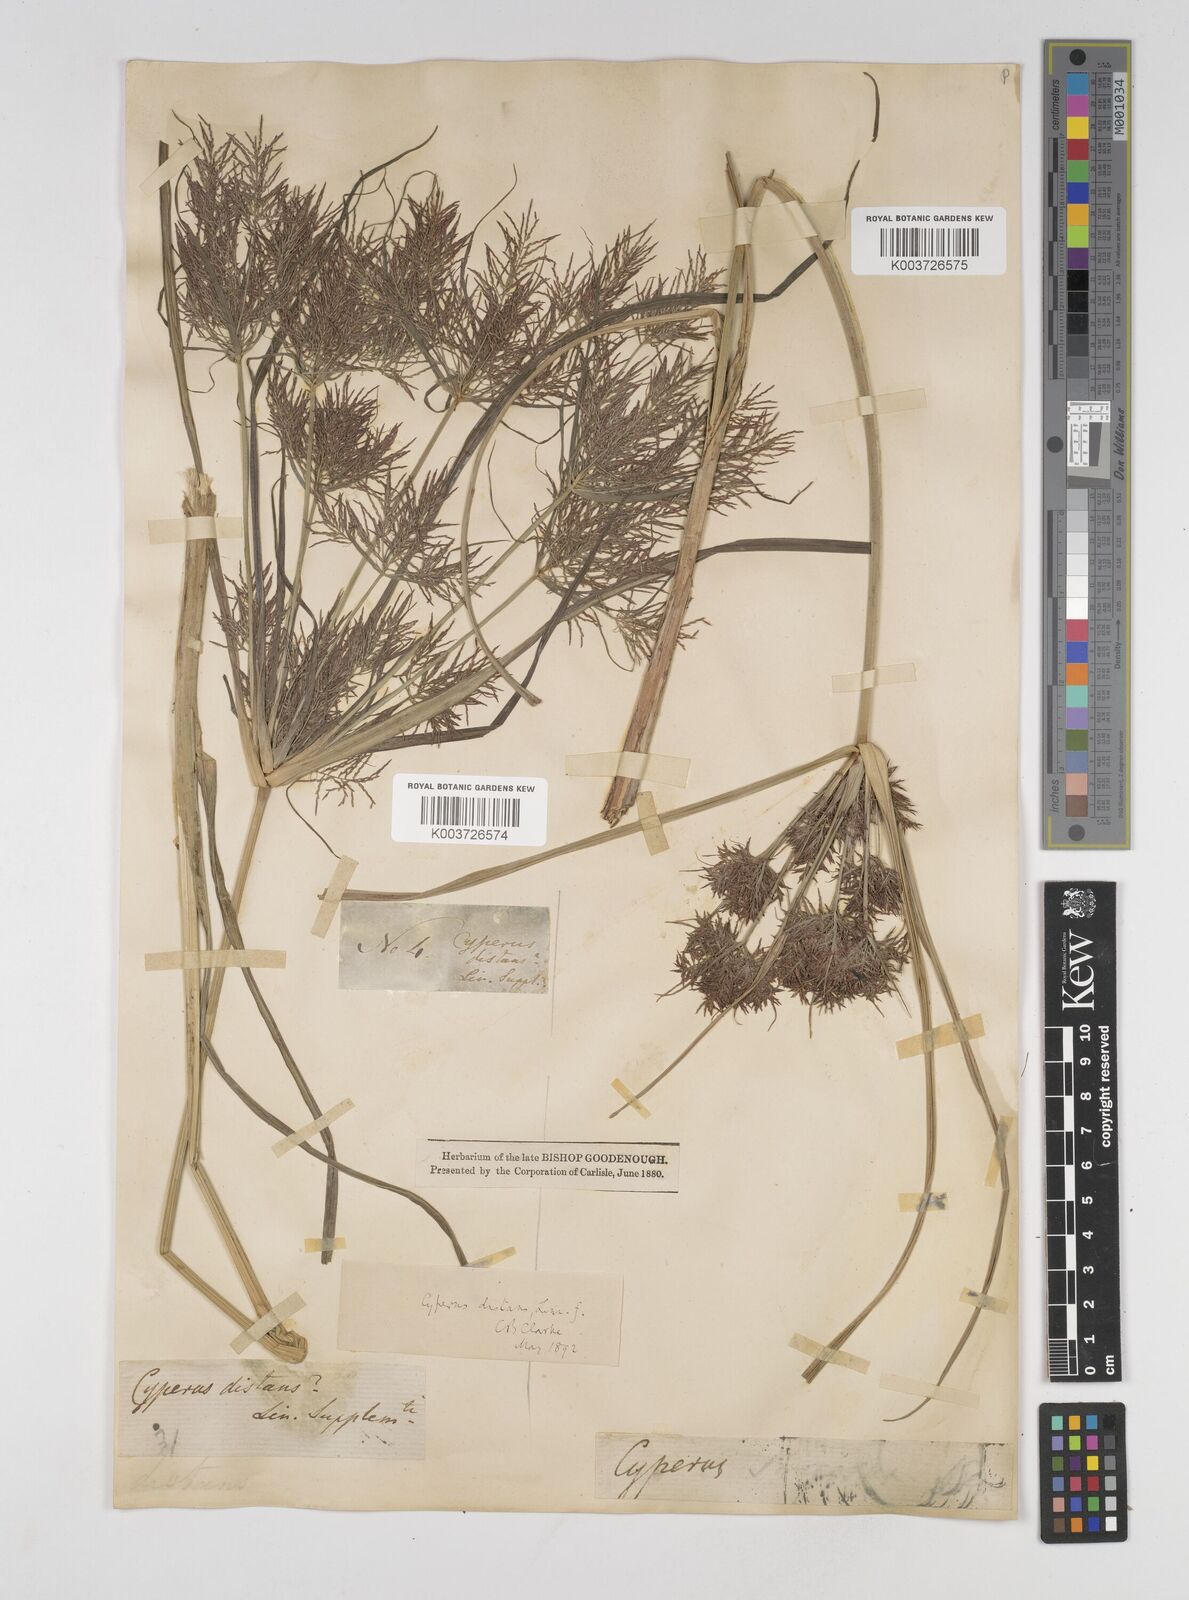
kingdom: Plantae
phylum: Tracheophyta
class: Liliopsida
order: Poales
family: Cyperaceae
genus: Cyperus
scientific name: Cyperus distans
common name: Slender cyperus
